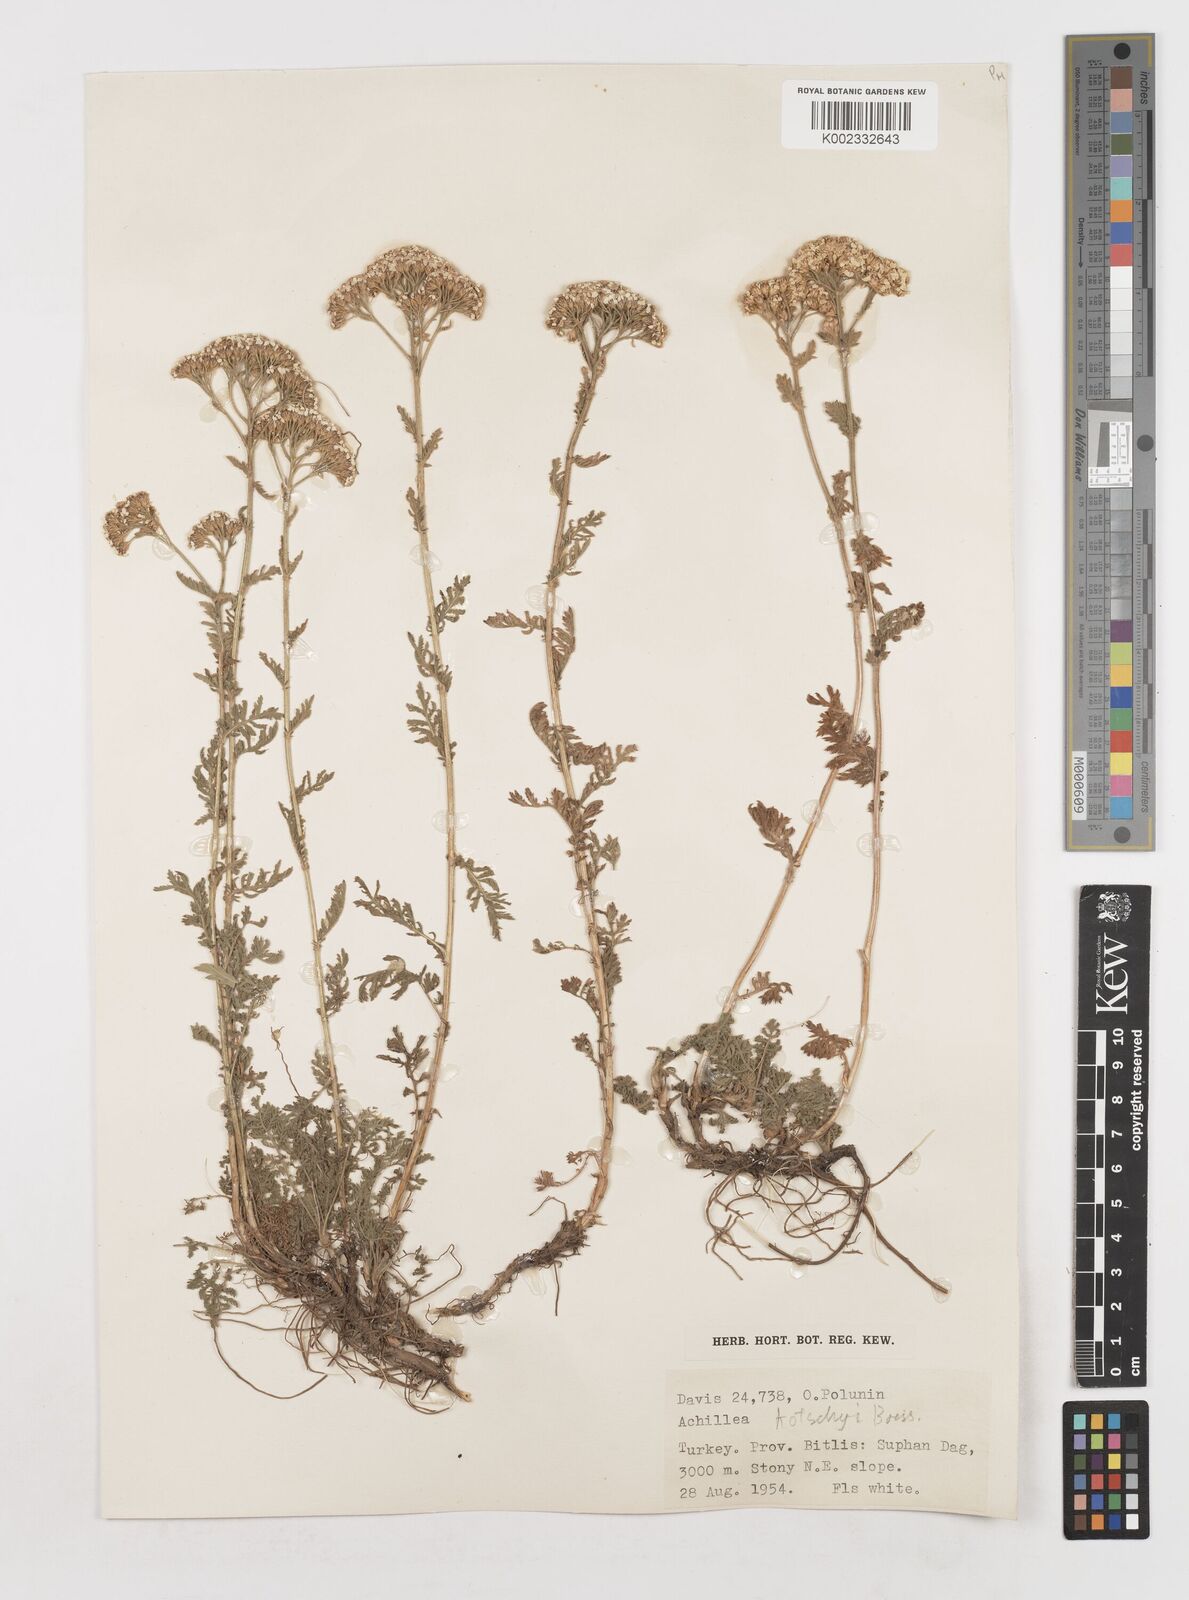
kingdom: Plantae
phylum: Tracheophyta
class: Magnoliopsida
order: Asterales
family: Asteraceae
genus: Achillea
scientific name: Achillea kotschyi
